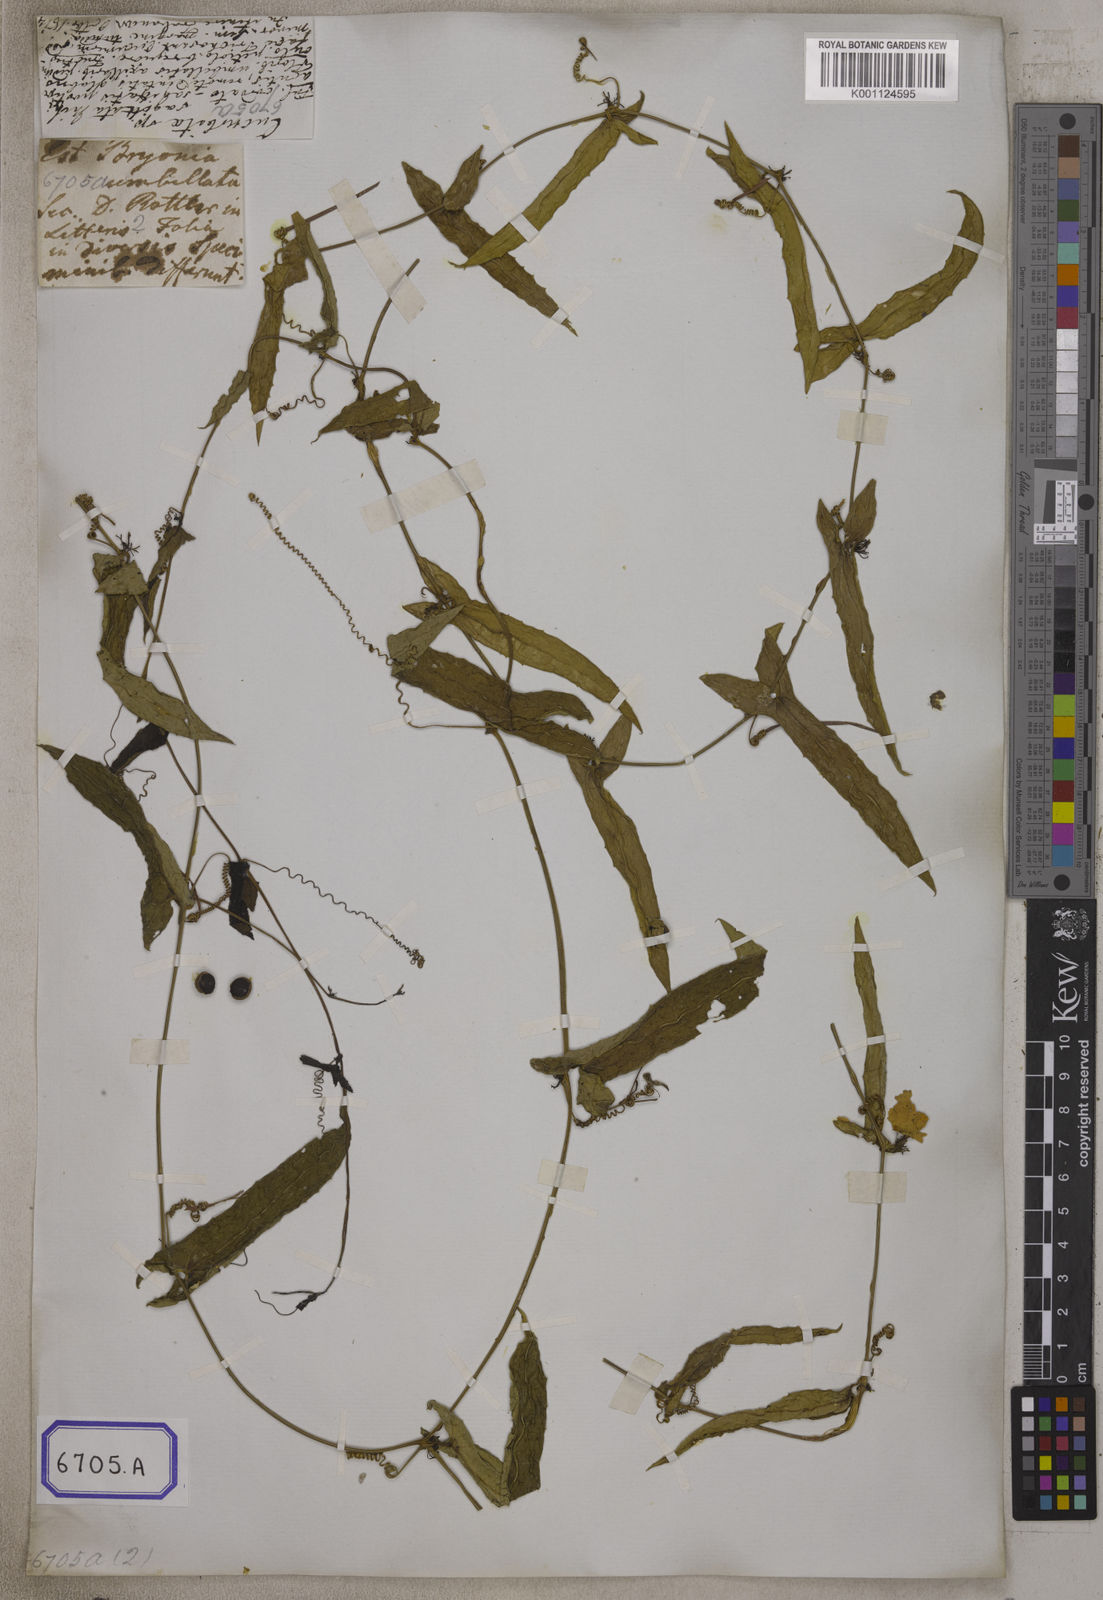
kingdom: Plantae
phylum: Tracheophyta
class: Magnoliopsida
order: Cucurbitales
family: Cucurbitaceae
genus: Bryonia
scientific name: Bryonia
